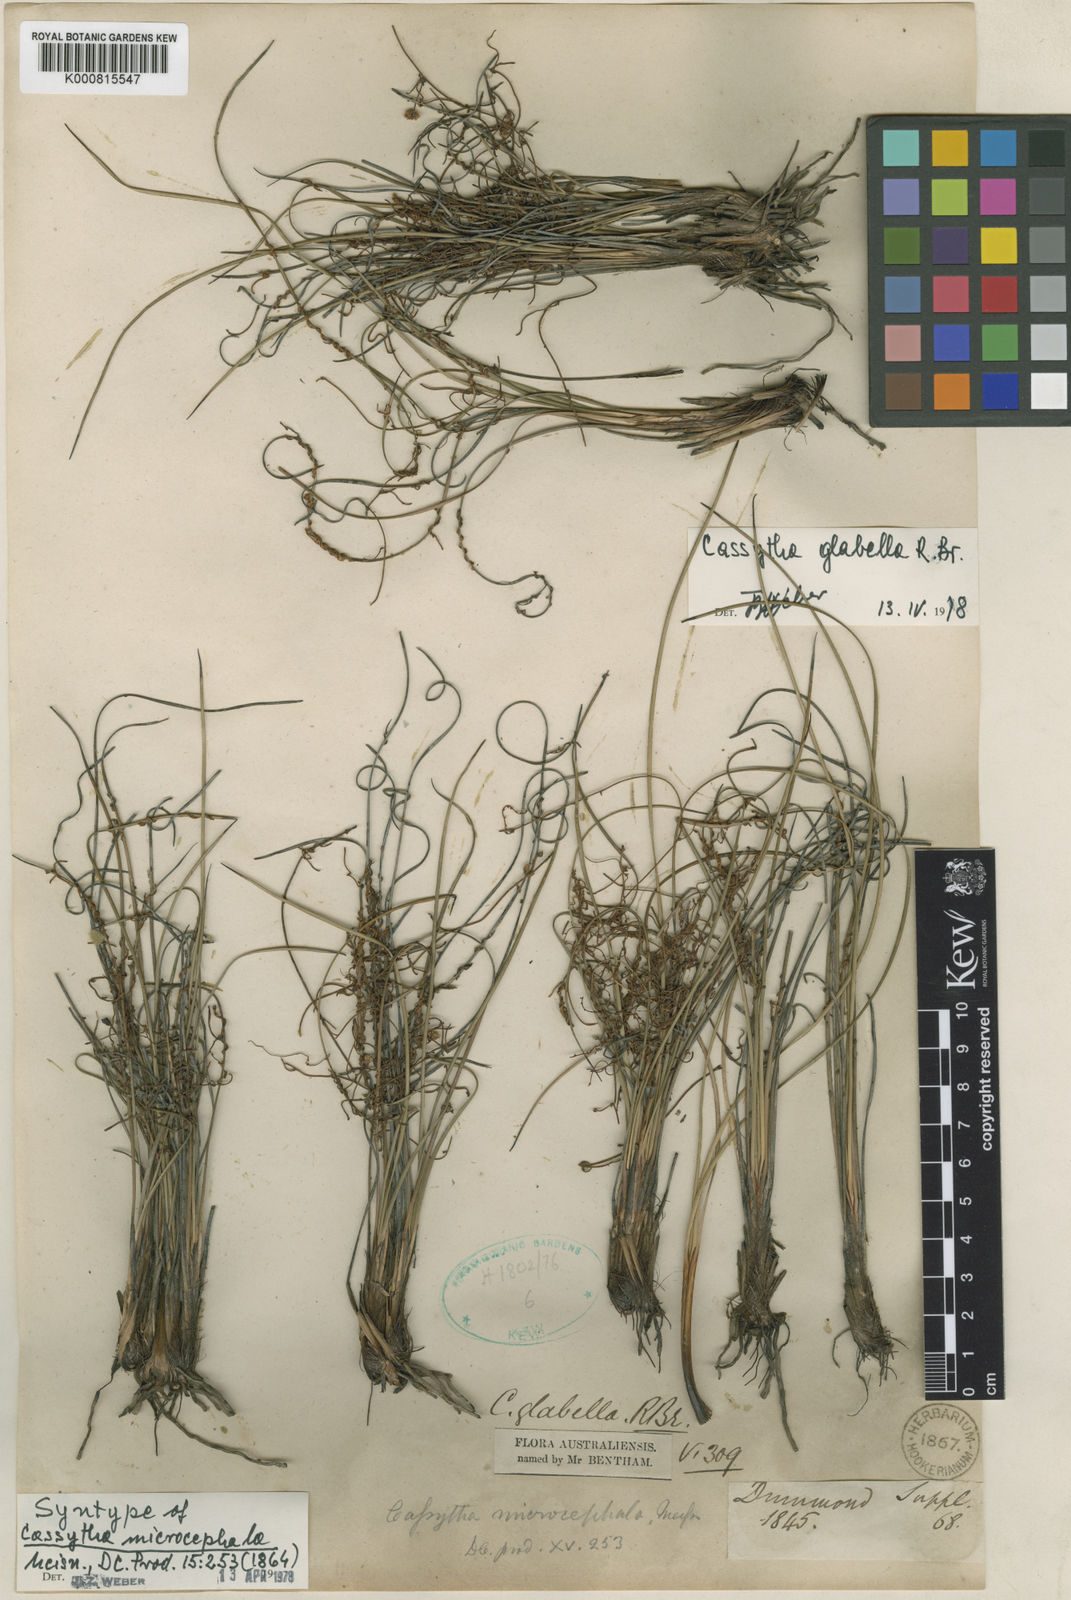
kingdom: Plantae
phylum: Tracheophyta
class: Magnoliopsida
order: Laurales
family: Lauraceae
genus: Cassytha
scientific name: Cassytha glabella
